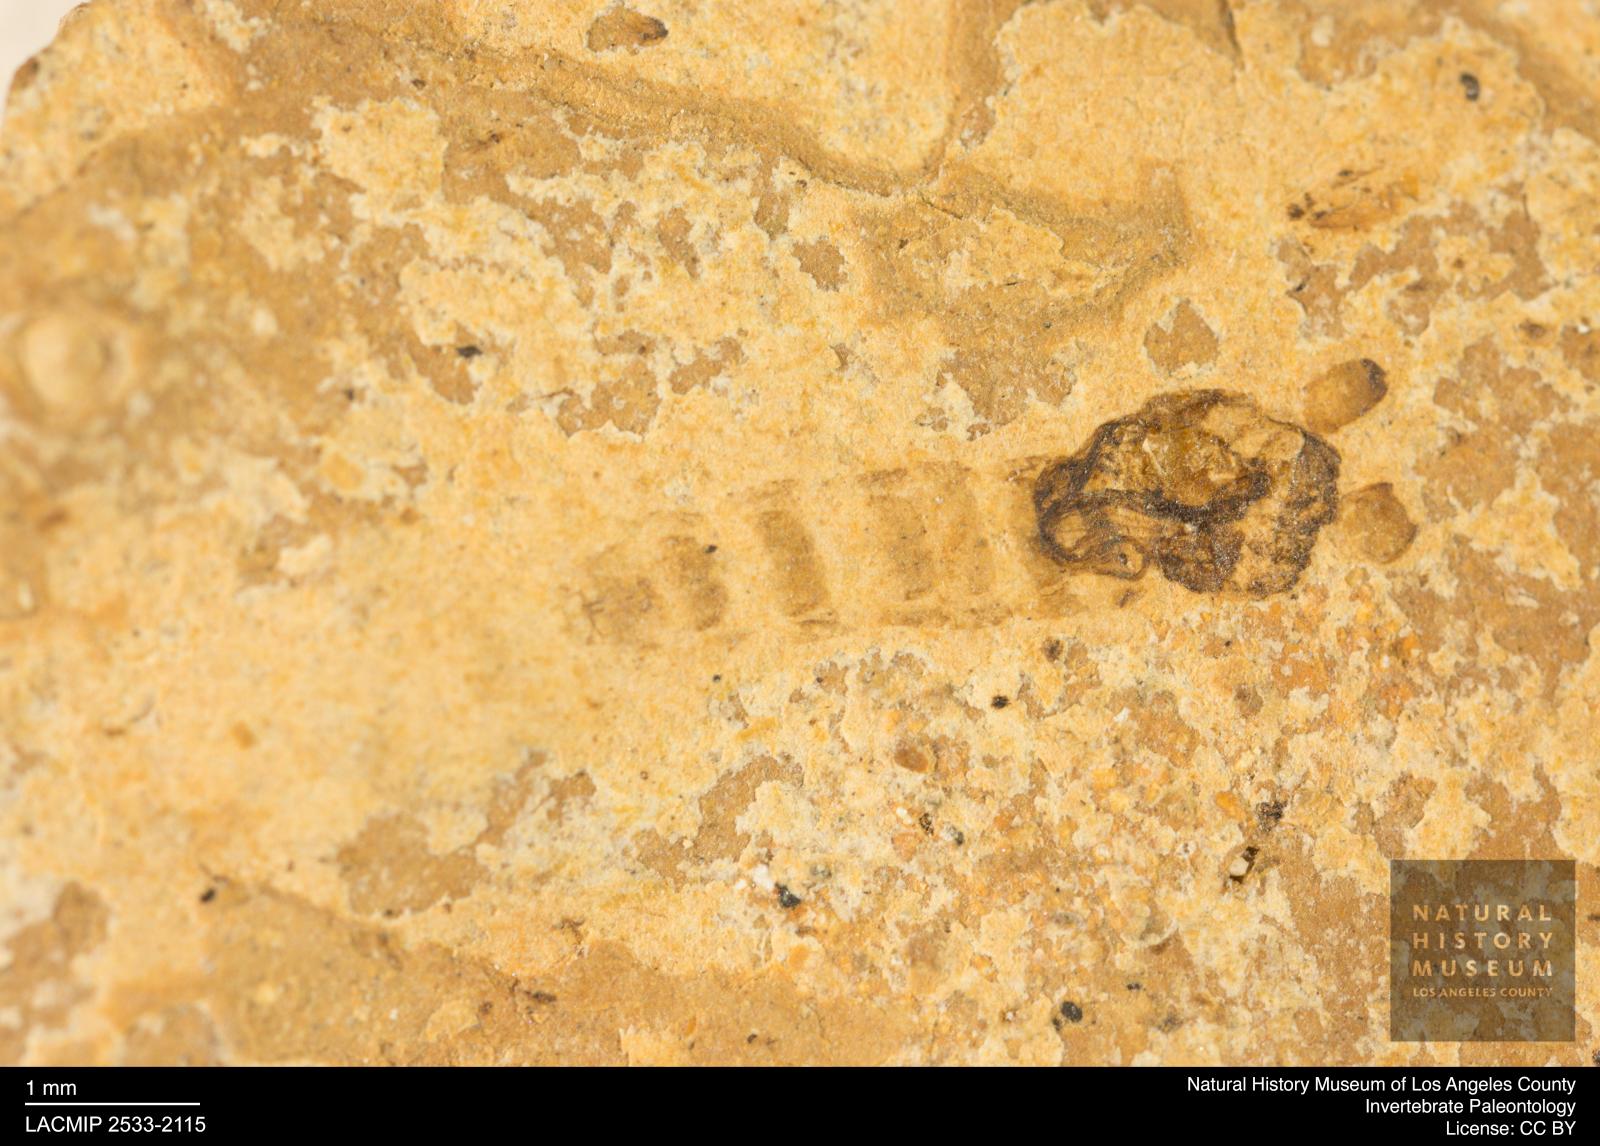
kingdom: Animalia
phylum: Arthropoda
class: Insecta
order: Diptera
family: Chironomidae
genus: Pelopiina
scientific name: Pelopiina
